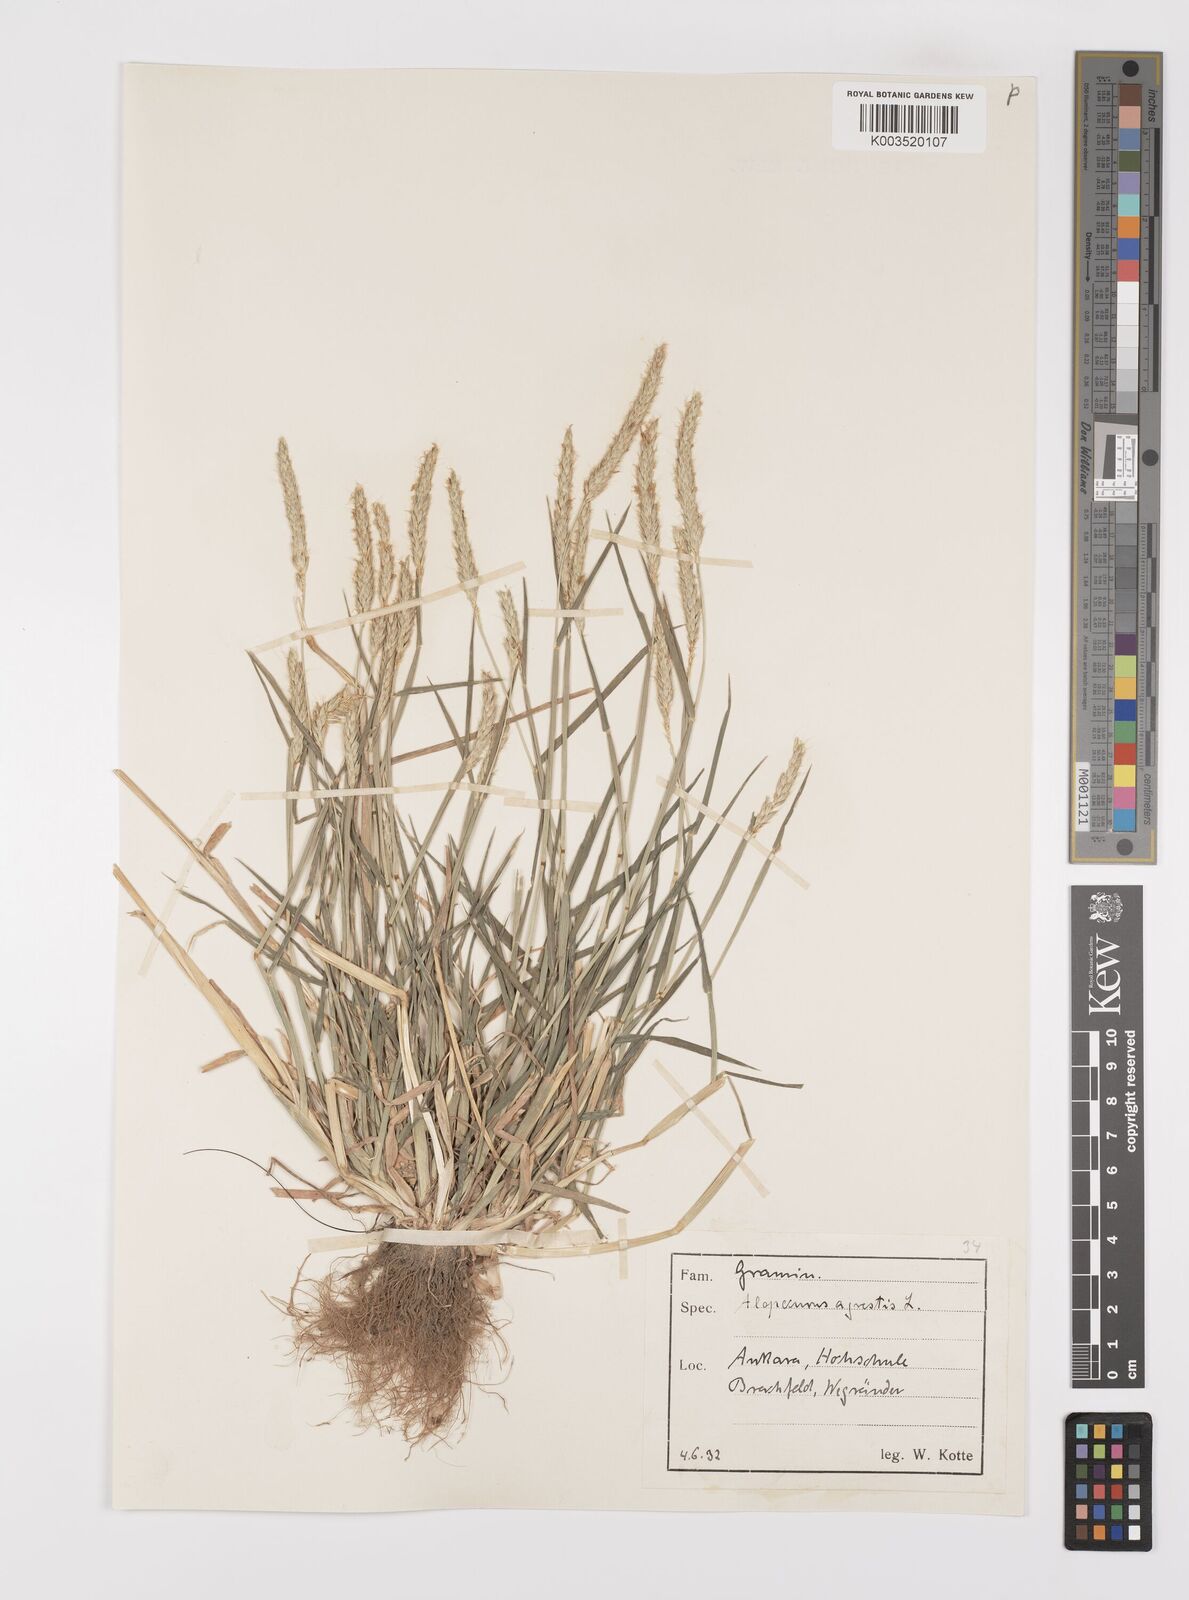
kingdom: Plantae
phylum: Tracheophyta
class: Liliopsida
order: Poales
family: Poaceae
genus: Alopecurus
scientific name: Alopecurus myosuroides
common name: Black-grass
